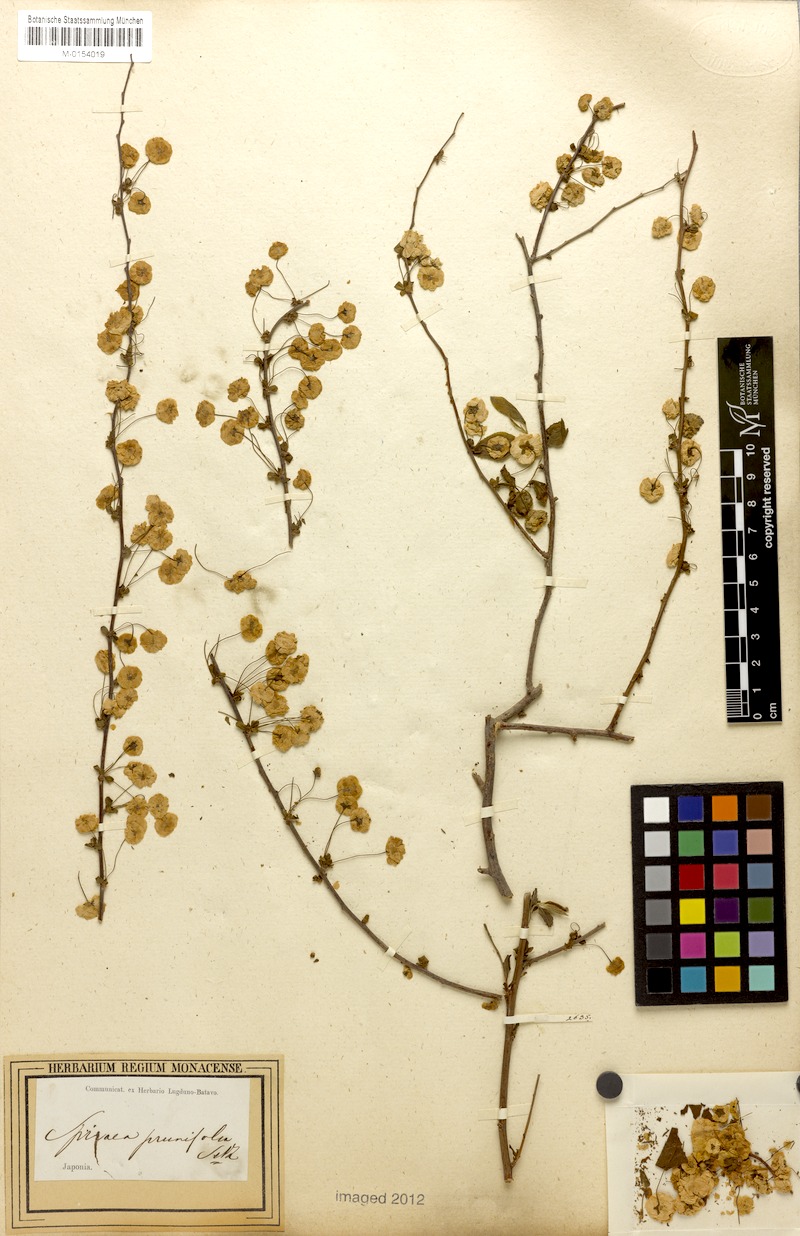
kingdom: Plantae
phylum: Tracheophyta
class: Magnoliopsida
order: Rosales
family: Rosaceae
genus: Spiraea
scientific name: Spiraea prunifolia
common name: Bridal-wreath spiraea
